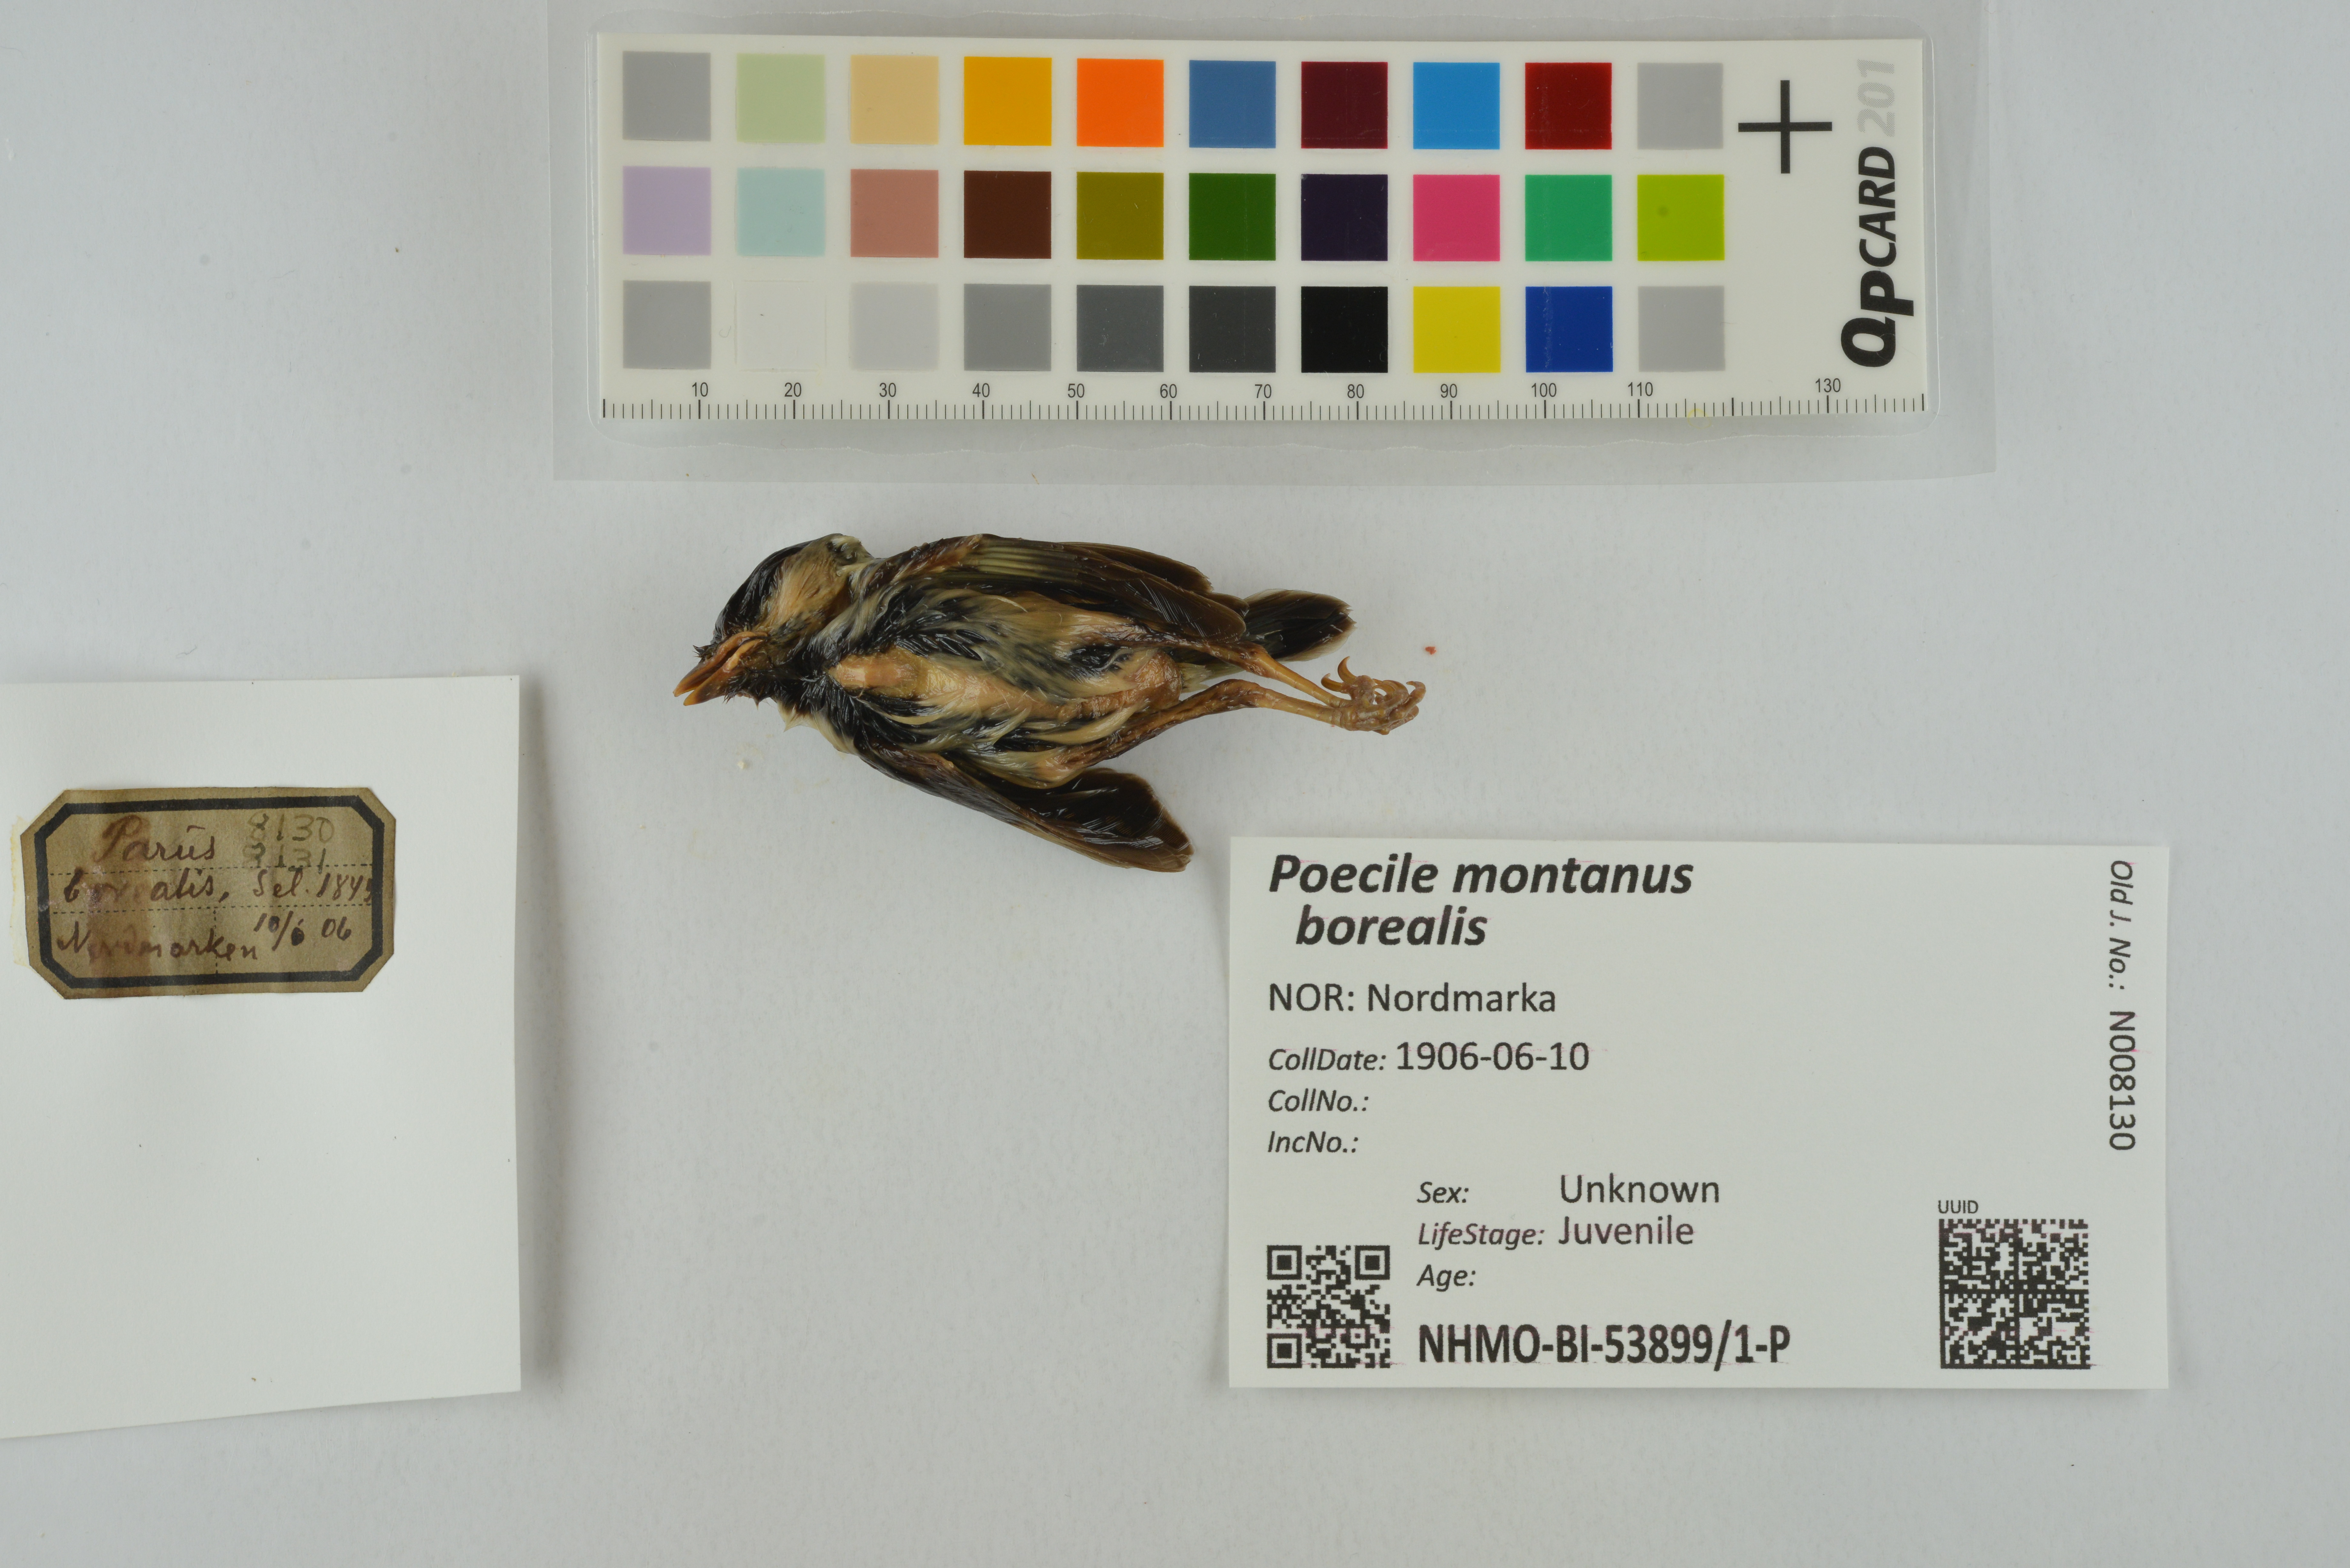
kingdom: Animalia
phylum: Chordata
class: Aves
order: Passeriformes
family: Paridae
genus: Poecile
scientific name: Poecile montanus
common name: Willow tit
